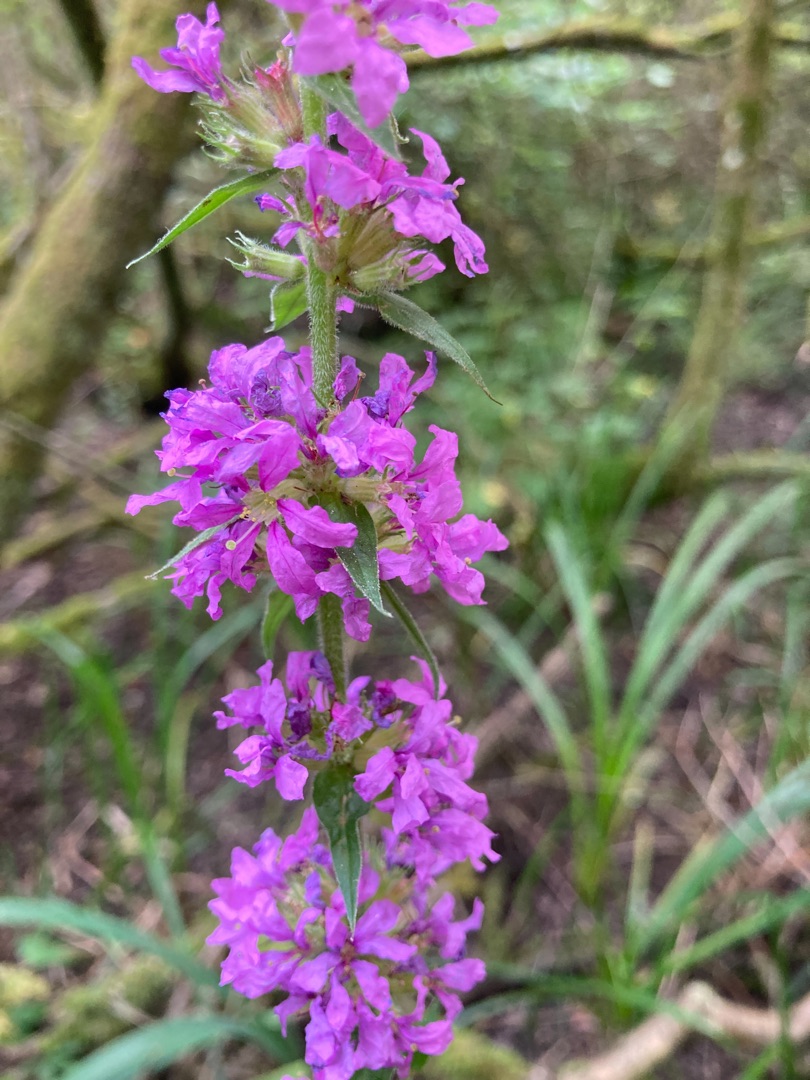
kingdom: Plantae
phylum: Tracheophyta
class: Magnoliopsida
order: Myrtales
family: Lythraceae
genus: Lythrum
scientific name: Lythrum salicaria
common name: Kattehale
